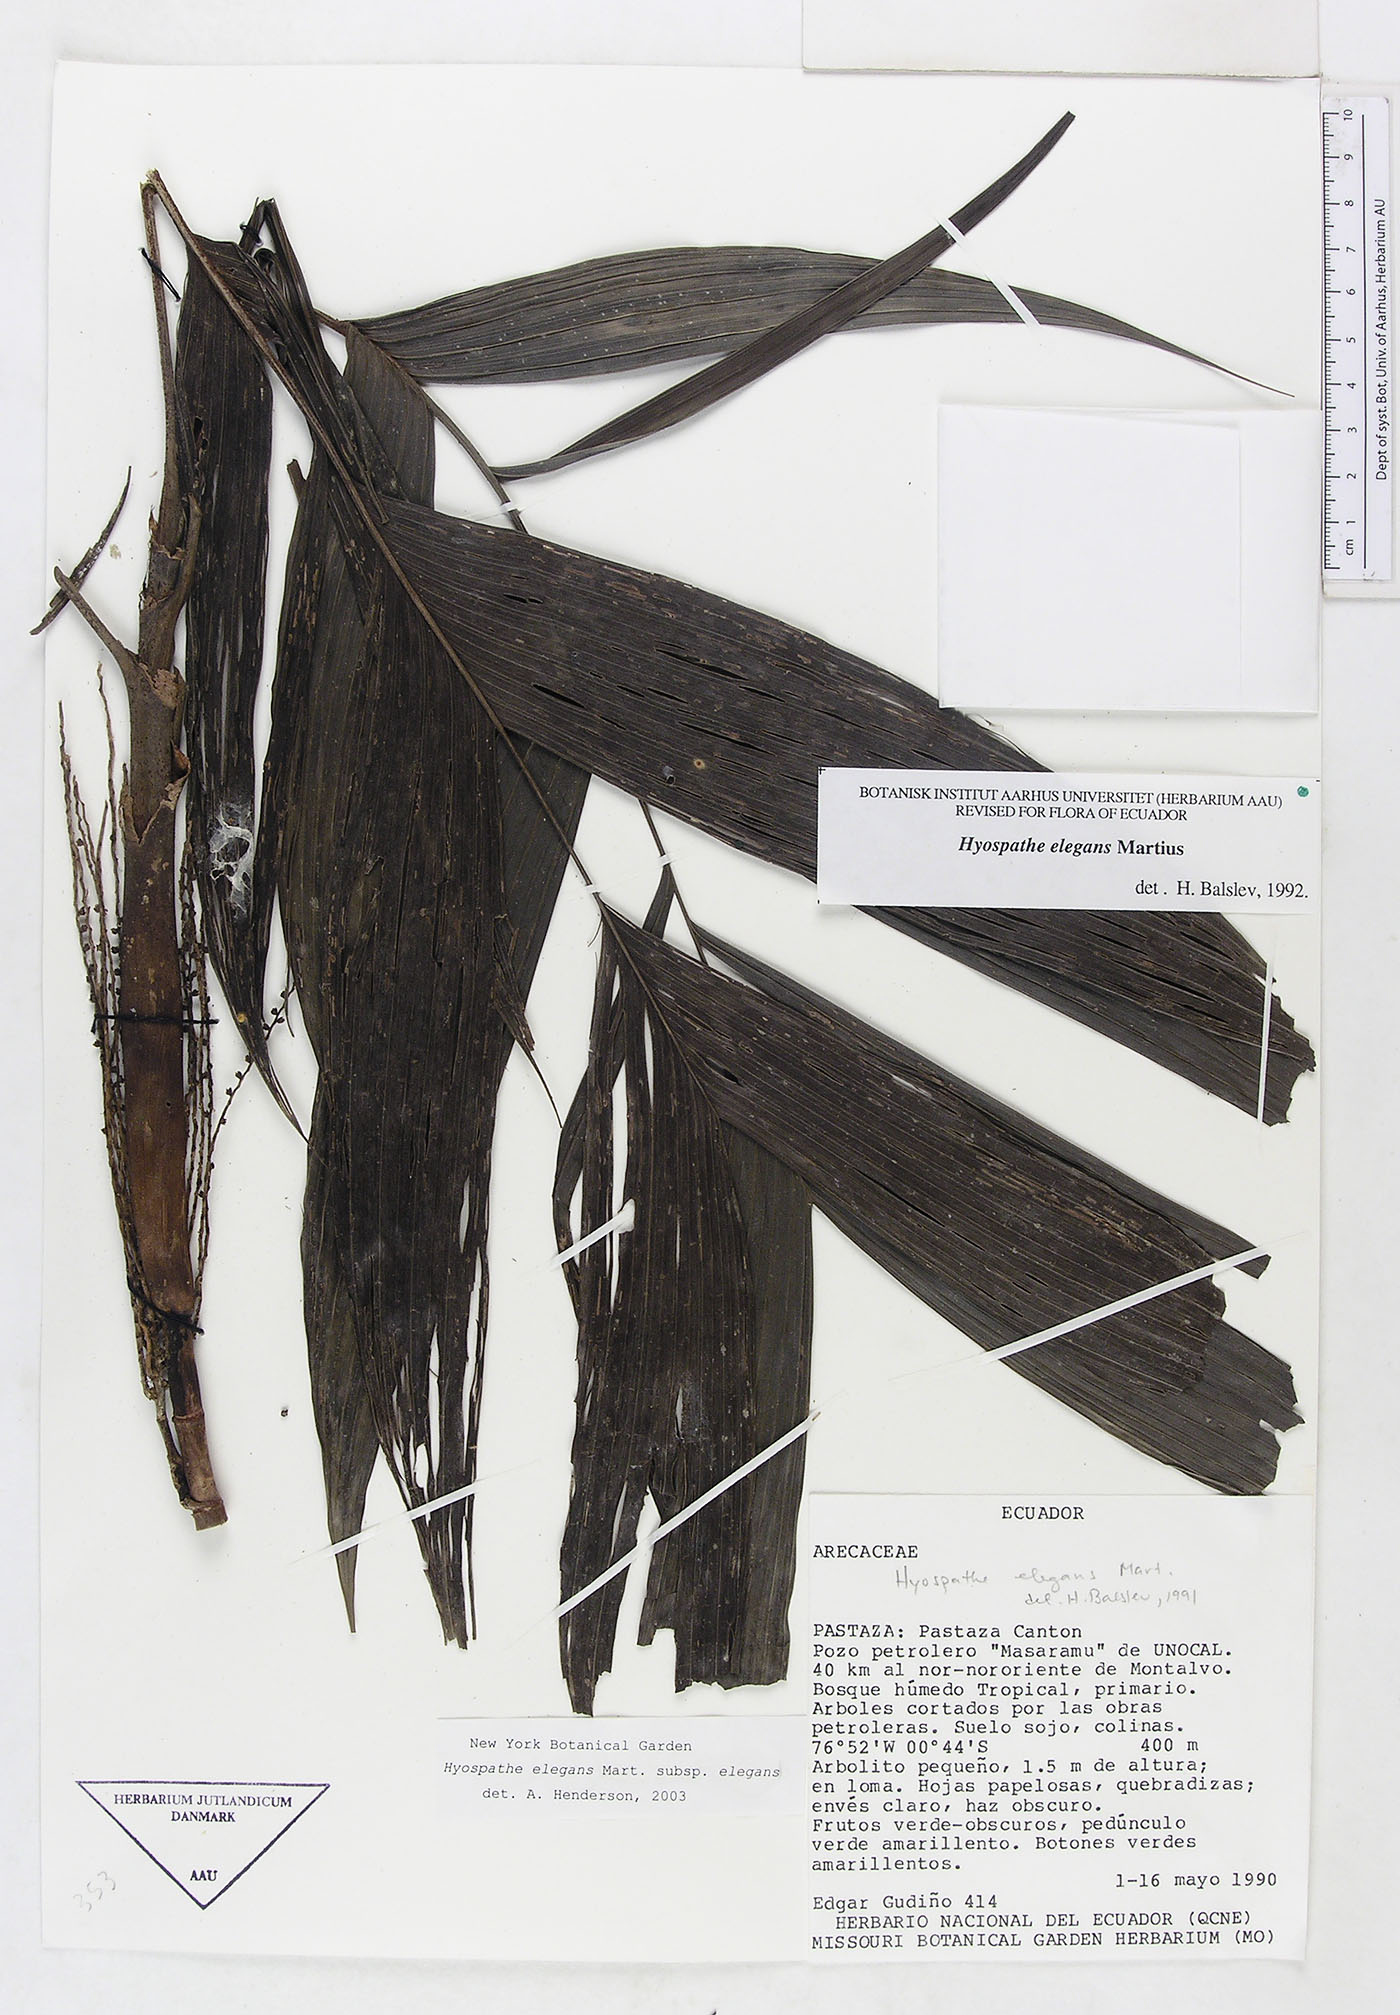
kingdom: Plantae
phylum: Tracheophyta
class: Liliopsida
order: Arecales
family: Arecaceae
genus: Hyospathe
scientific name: Hyospathe elegans
